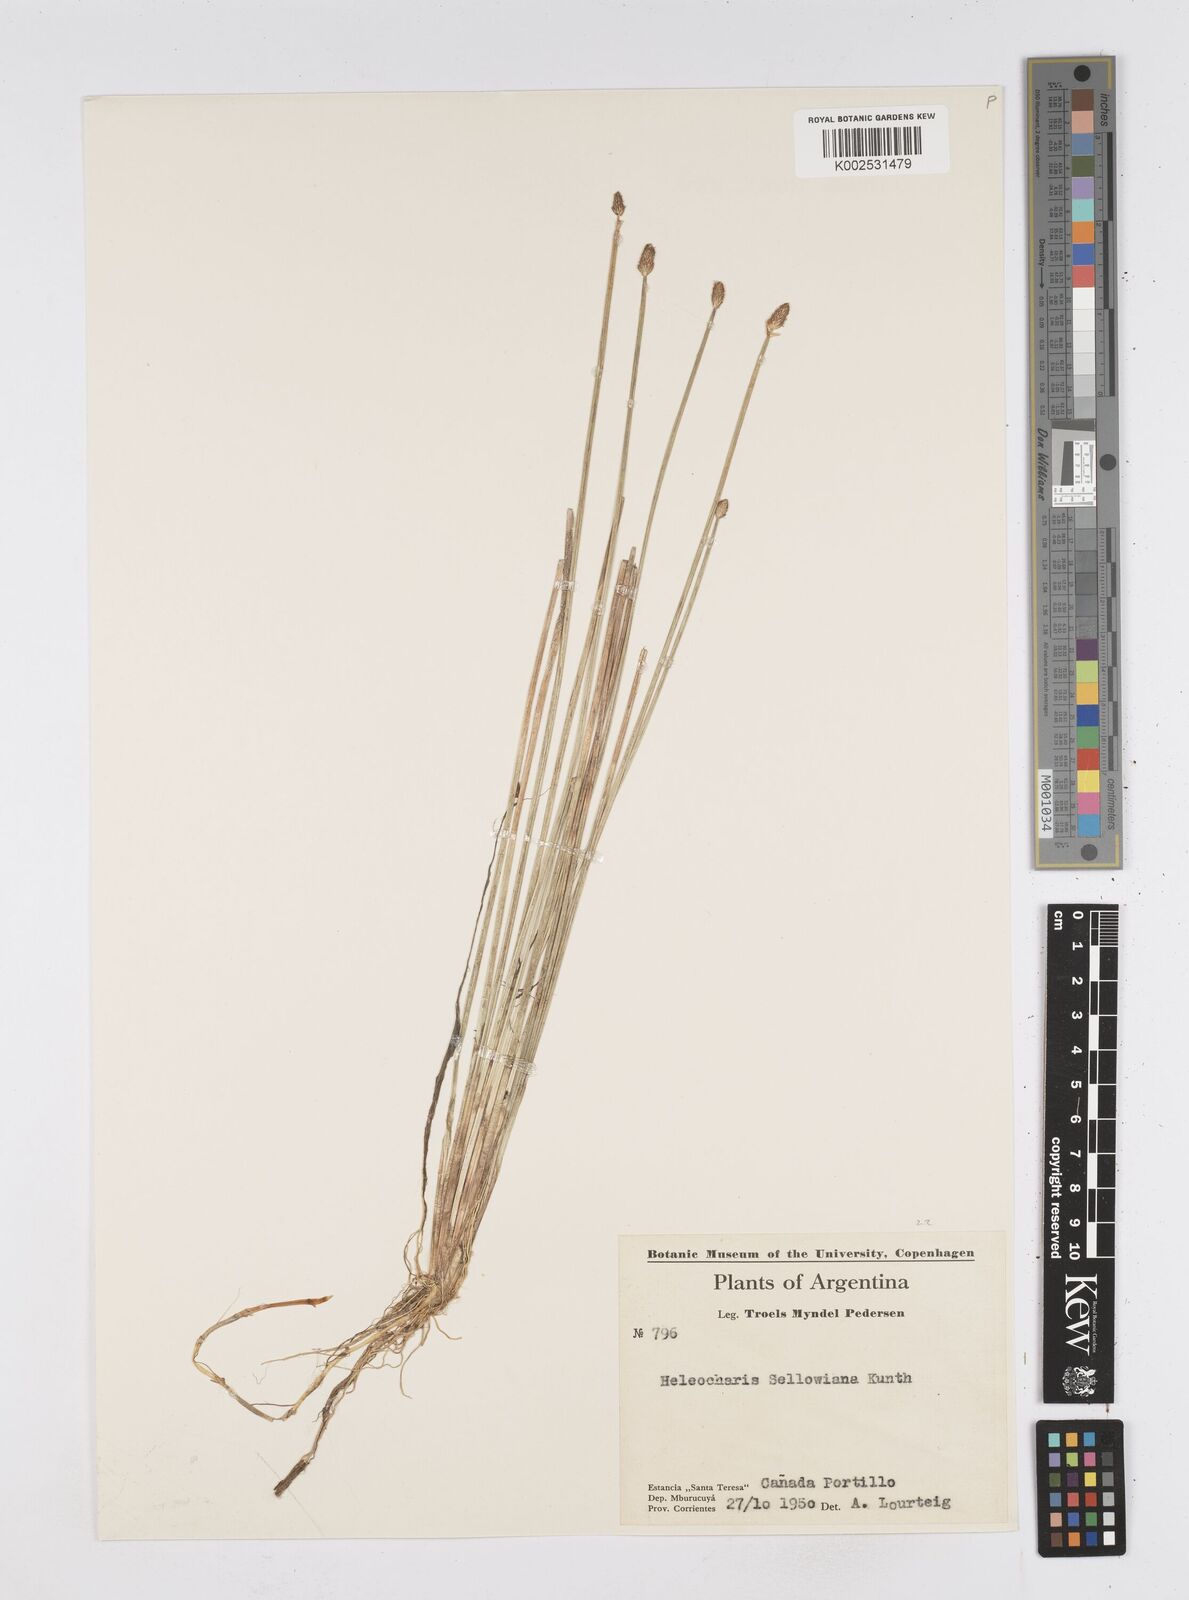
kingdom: Plantae
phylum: Tracheophyta
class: Liliopsida
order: Poales
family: Cyperaceae
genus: Eleocharis
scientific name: Eleocharis sellowiana
